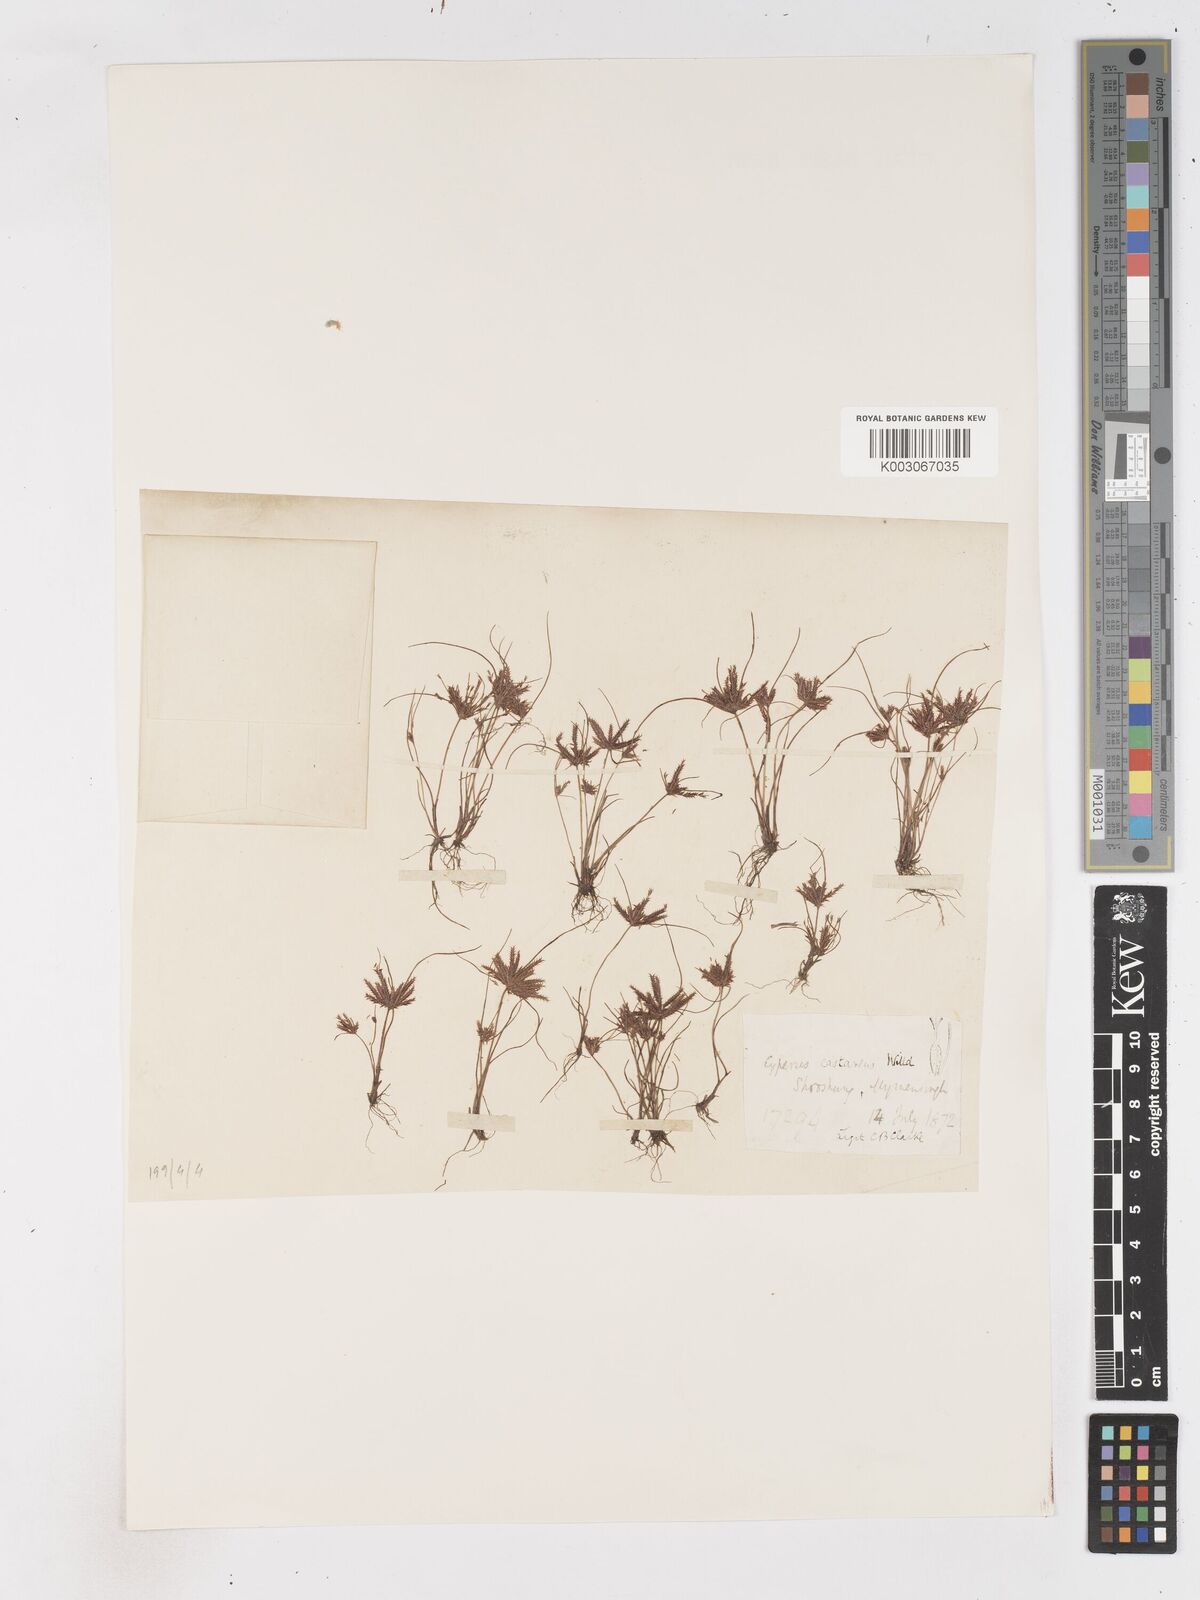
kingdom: Plantae
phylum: Tracheophyta
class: Liliopsida
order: Poales
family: Cyperaceae
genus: Cyperus
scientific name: Cyperus castaneus
